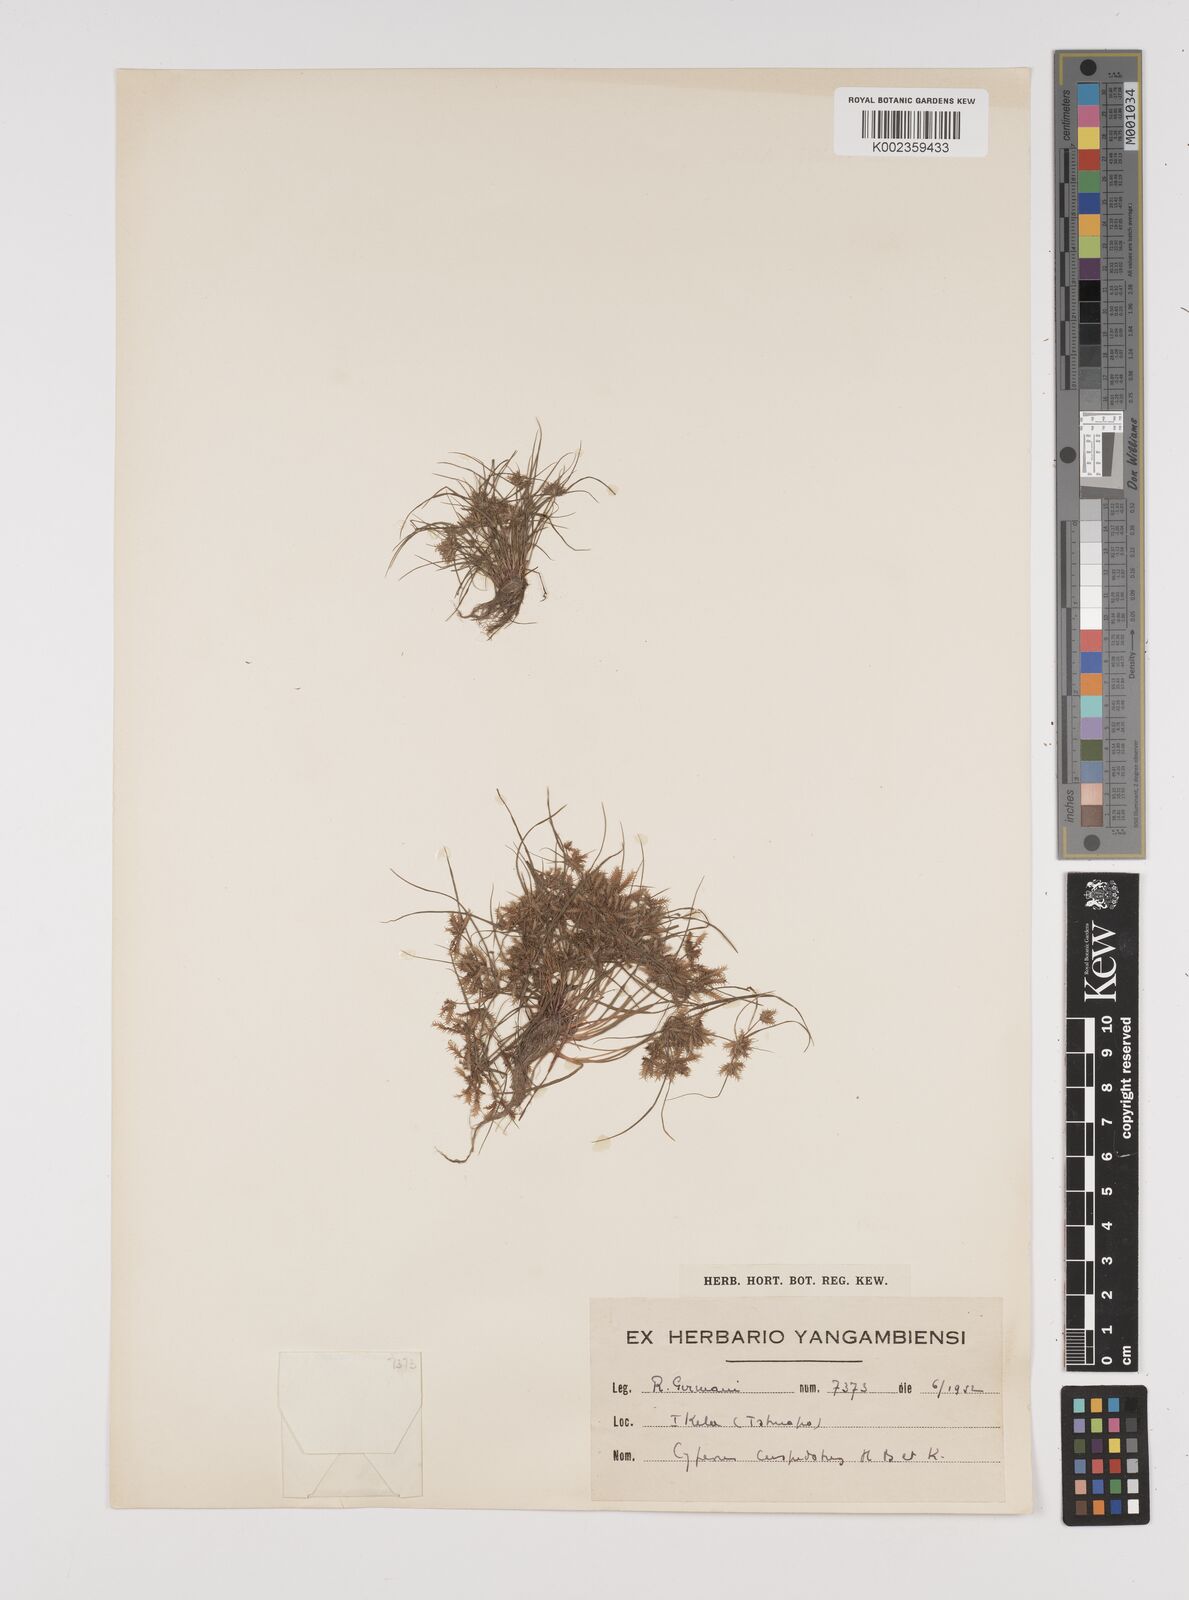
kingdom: Plantae
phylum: Tracheophyta
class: Liliopsida
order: Poales
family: Cyperaceae
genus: Cyperus
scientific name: Cyperus cuspidatus
